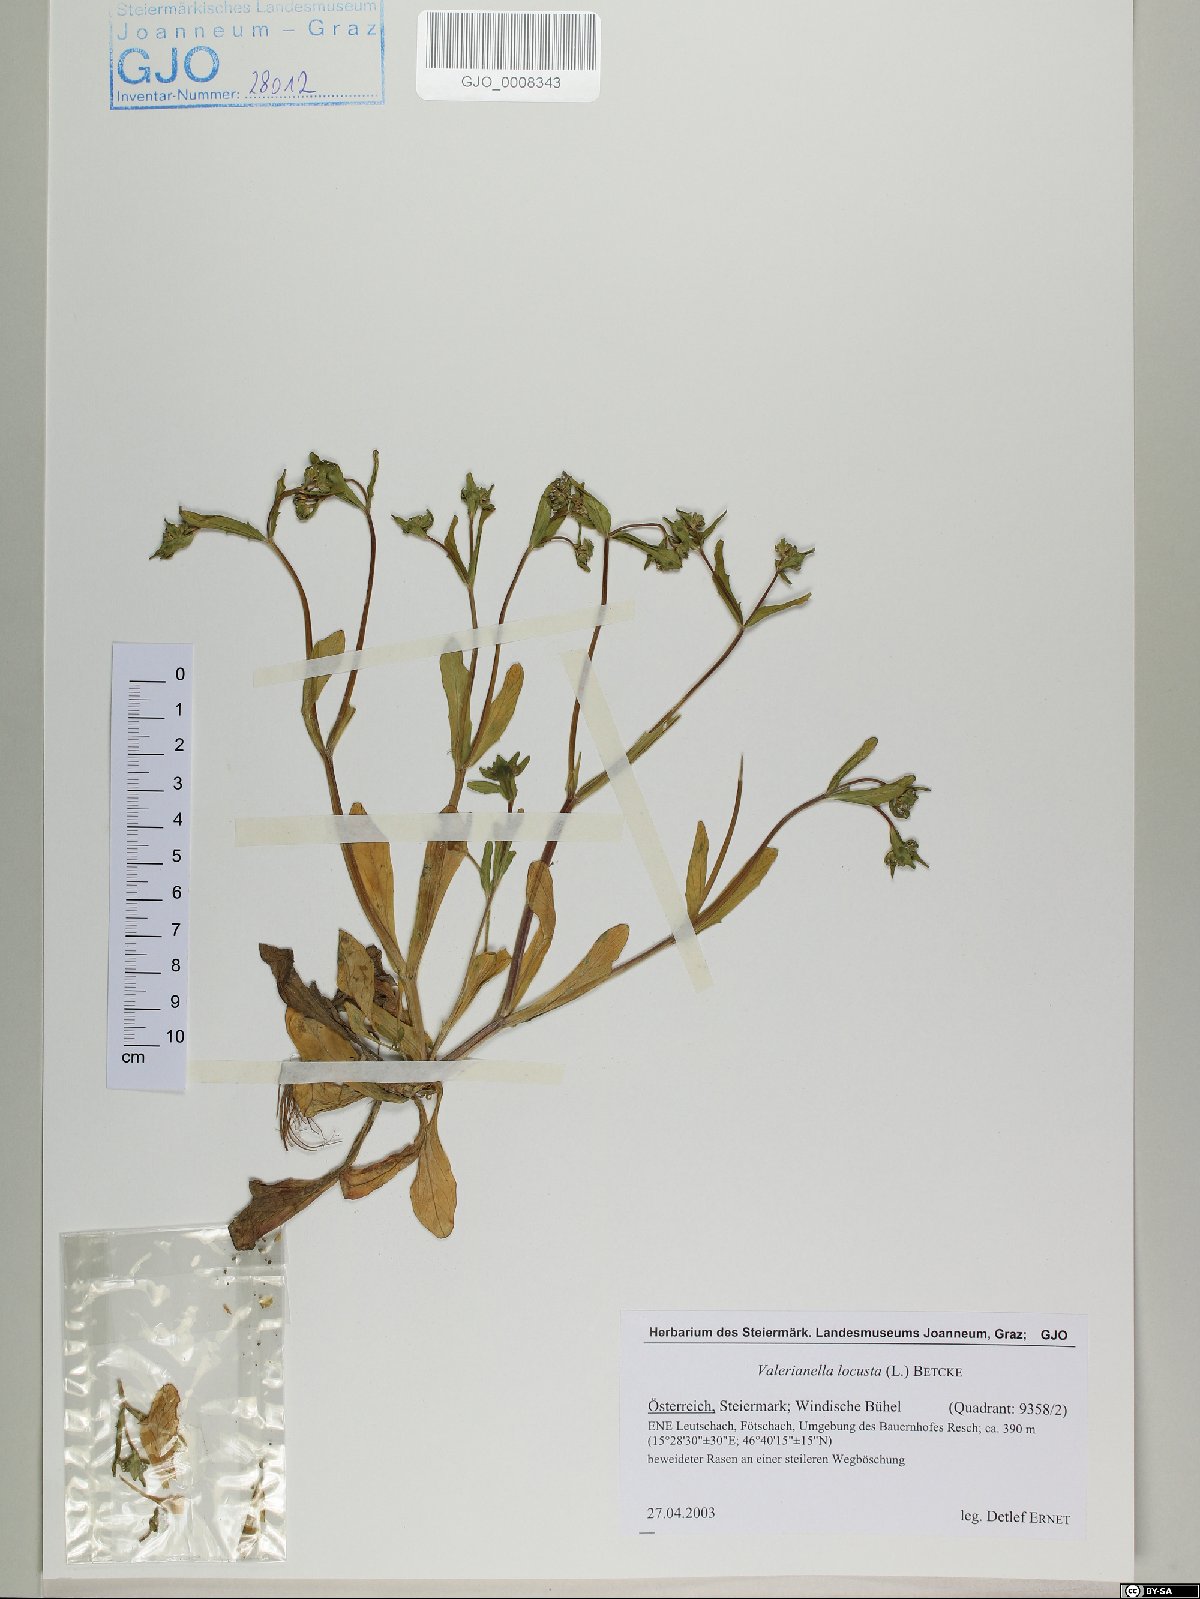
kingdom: Plantae
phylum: Tracheophyta
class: Magnoliopsida
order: Dipsacales
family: Caprifoliaceae
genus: Valerianella
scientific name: Valerianella locusta
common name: Common cornsalad
